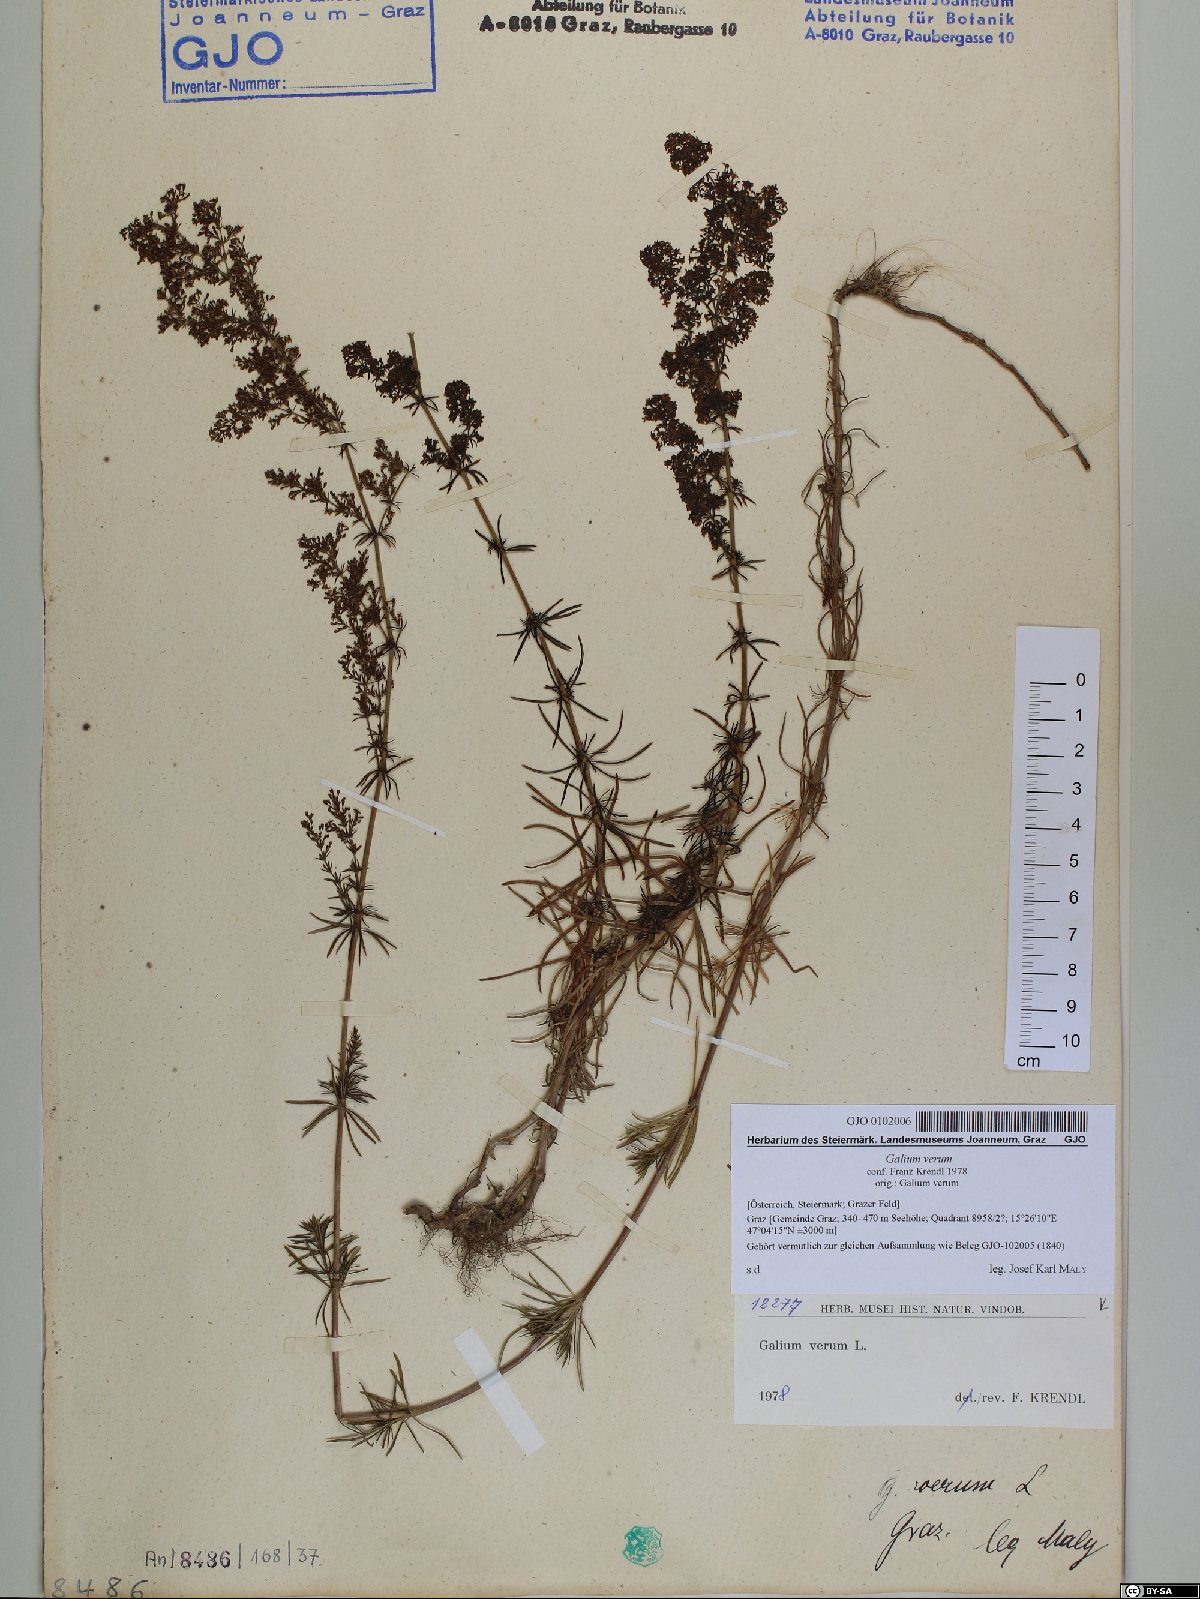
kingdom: Plantae
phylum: Tracheophyta
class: Magnoliopsida
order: Gentianales
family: Rubiaceae
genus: Galium
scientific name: Galium verum
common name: Lady's bedstraw
